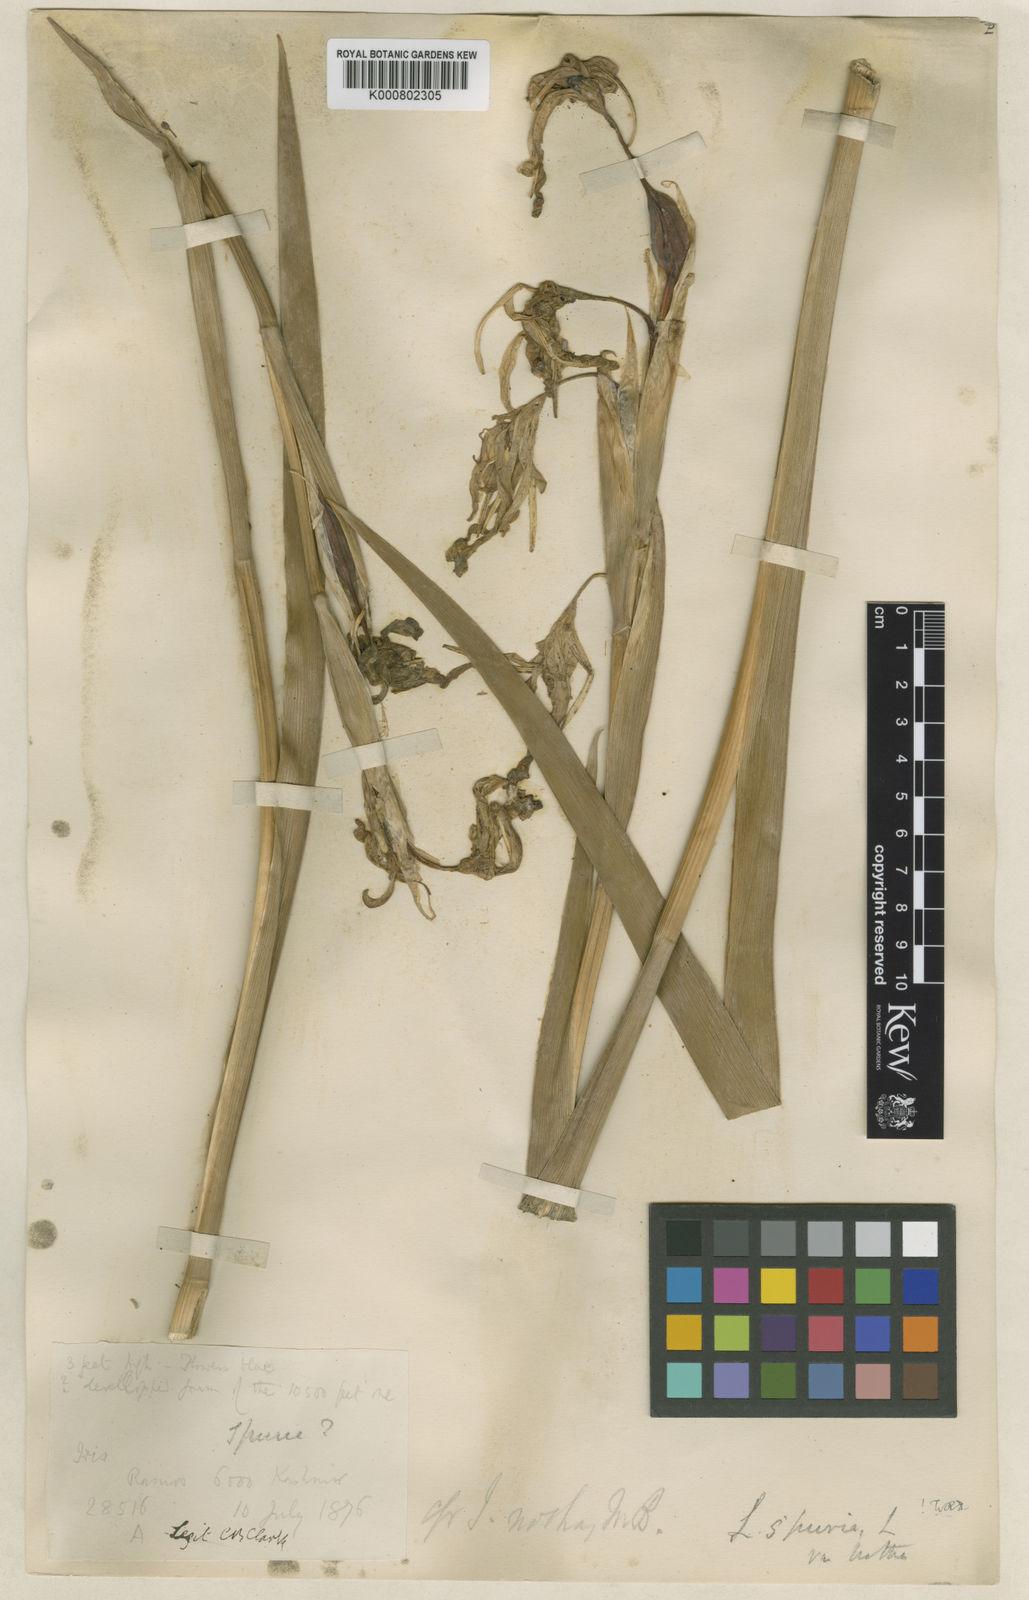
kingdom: Plantae
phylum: Tracheophyta
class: Liliopsida
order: Asparagales
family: Iridaceae
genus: Iris
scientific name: Iris spuria
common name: Blue iris
